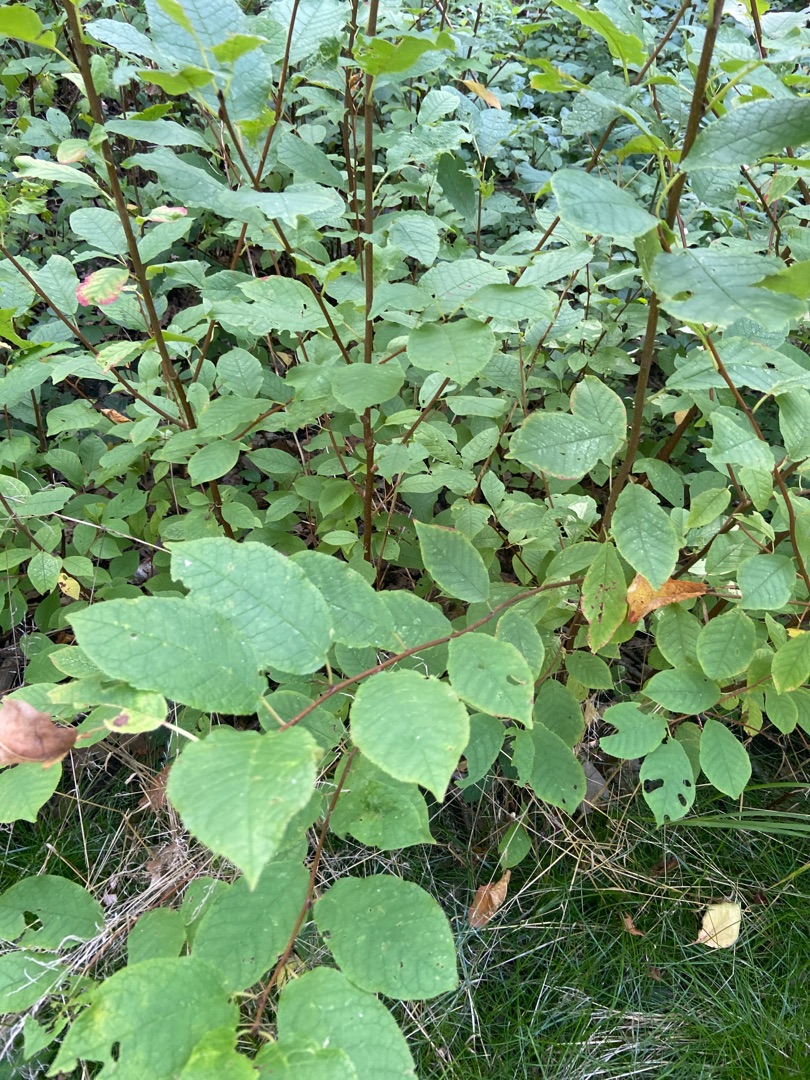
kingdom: Plantae
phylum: Tracheophyta
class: Magnoliopsida
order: Rosales
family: Rosaceae
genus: Prunus
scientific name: Prunus padus
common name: Almindelig hæg
